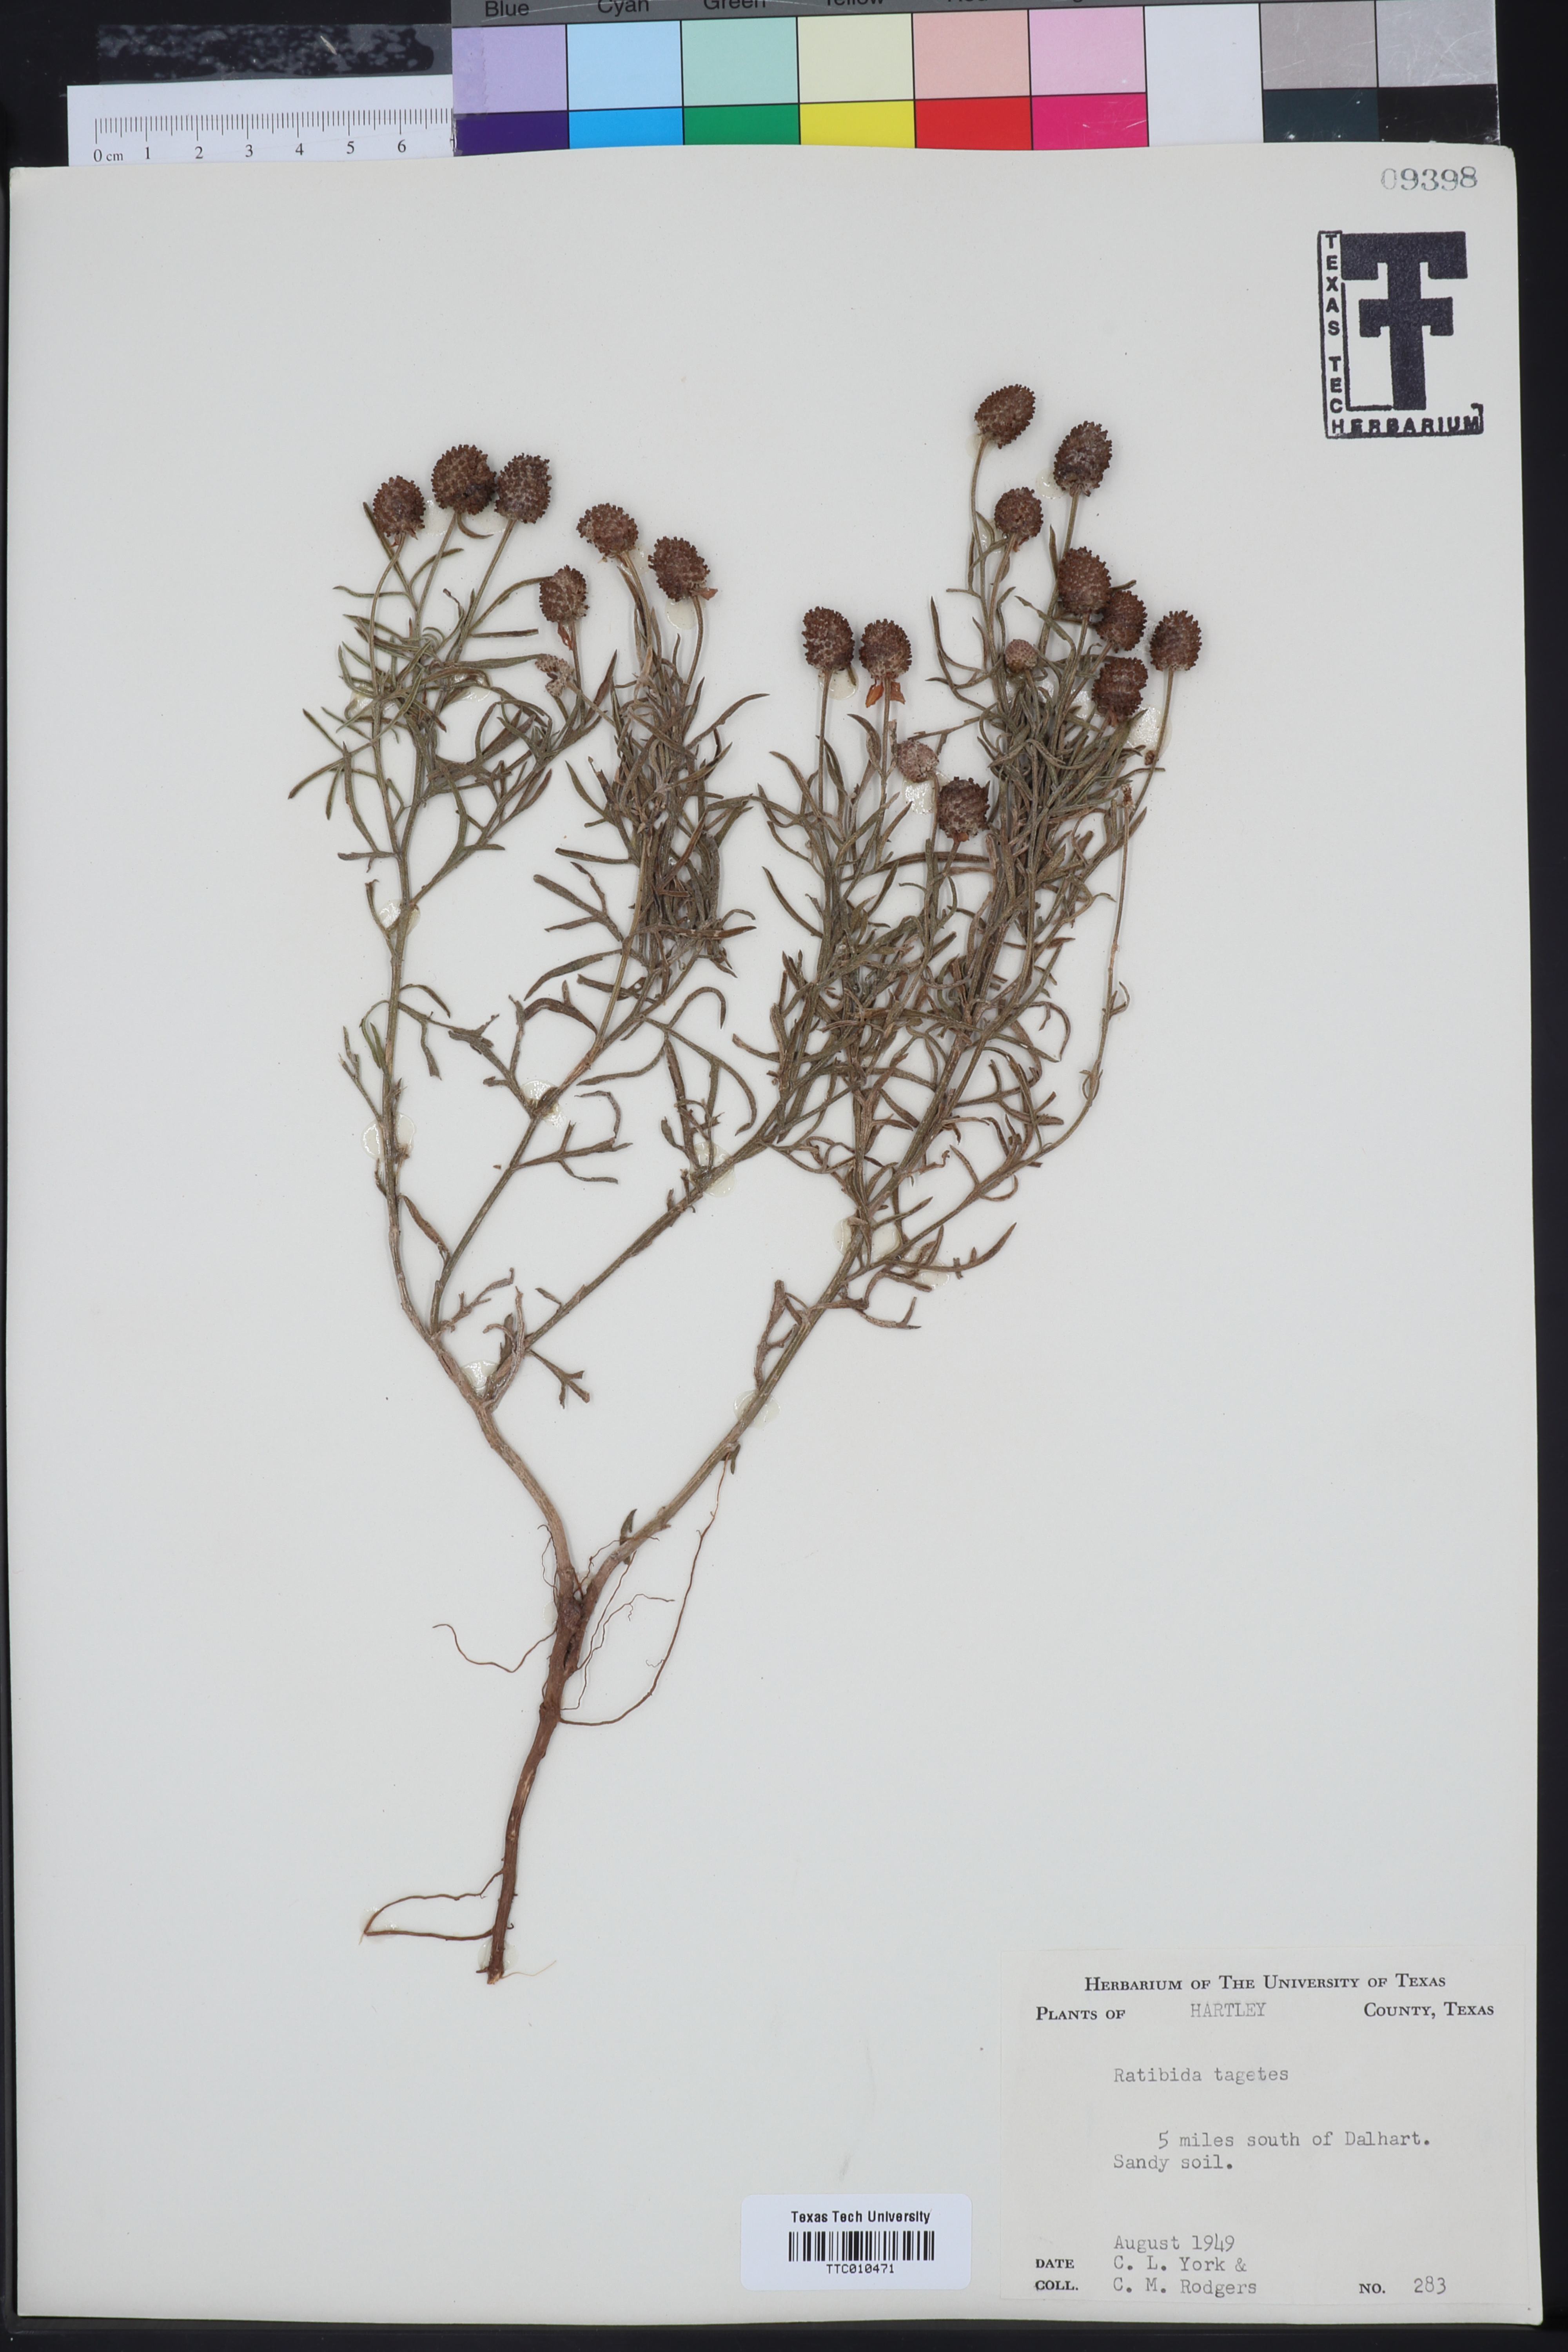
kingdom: Plantae
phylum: Tracheophyta
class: Magnoliopsida
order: Asterales
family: Asteraceae
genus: Ratibida
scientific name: Ratibida tagetes
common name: Green mexican-hat
